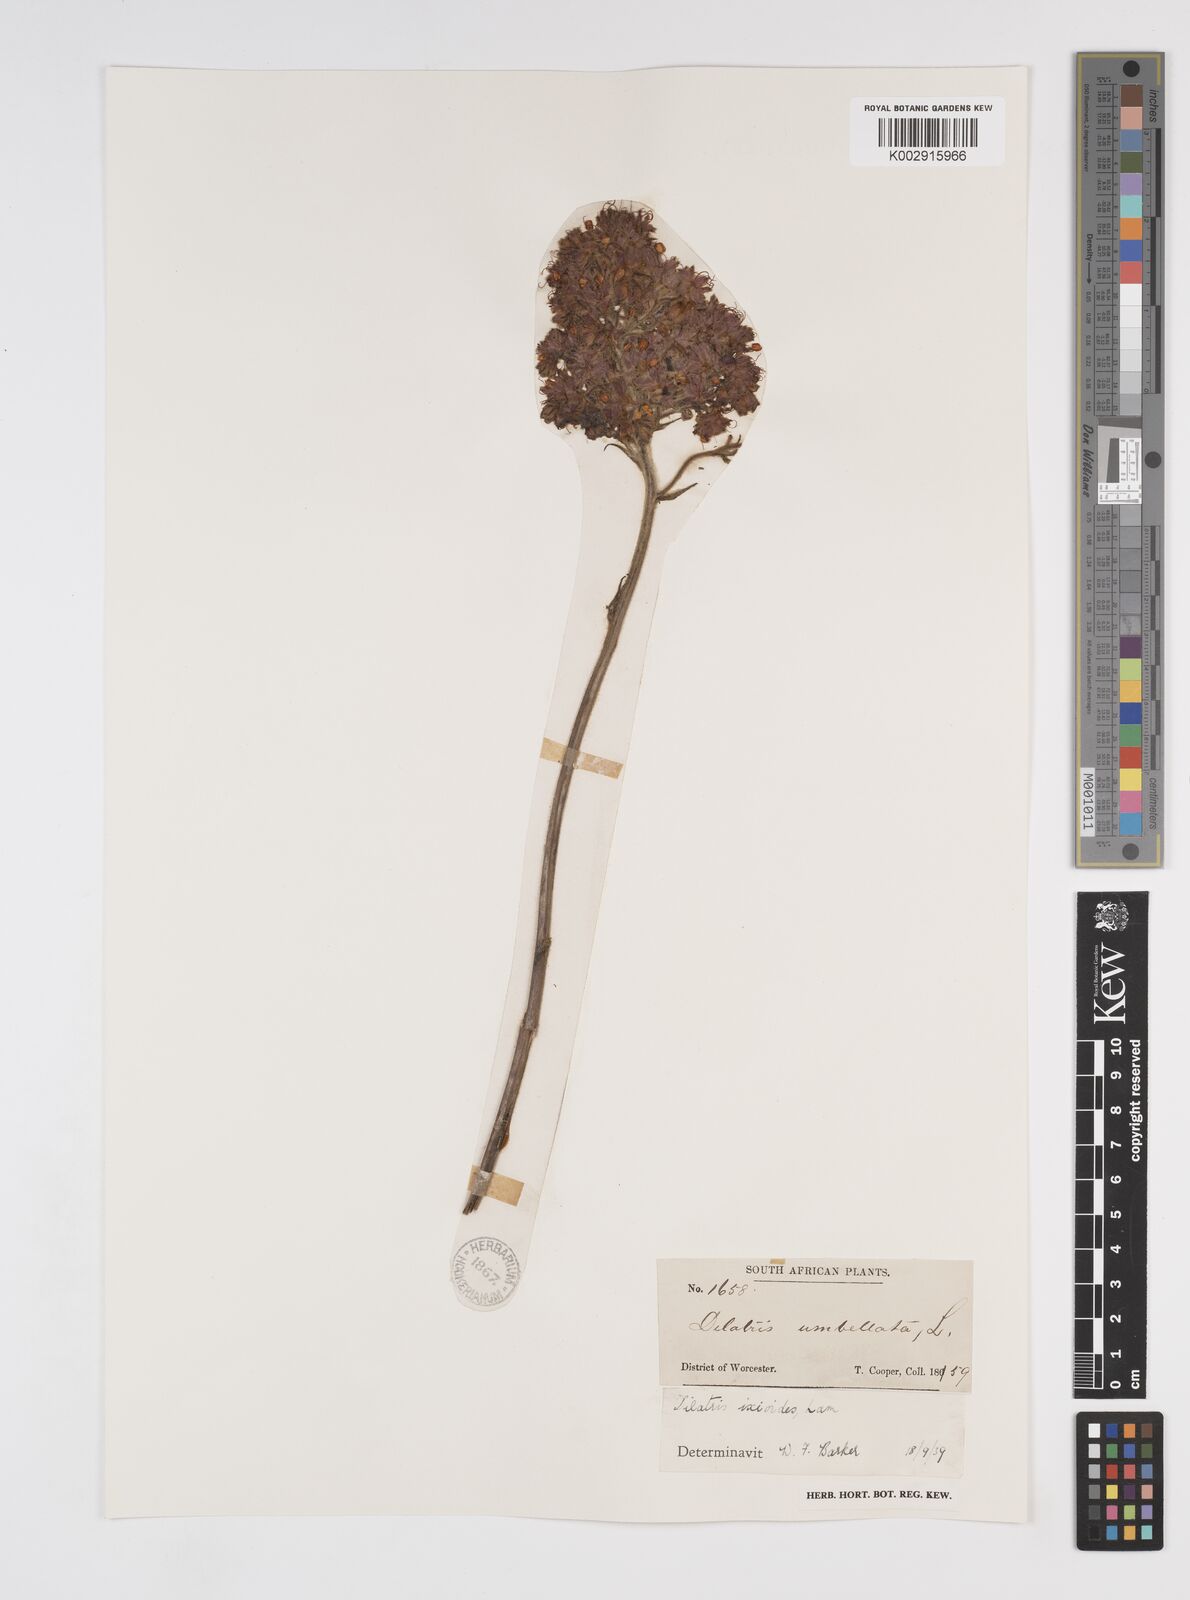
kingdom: Plantae
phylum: Tracheophyta
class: Liliopsida
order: Commelinales
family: Haemodoraceae
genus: Dilatris
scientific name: Dilatris ixioides
